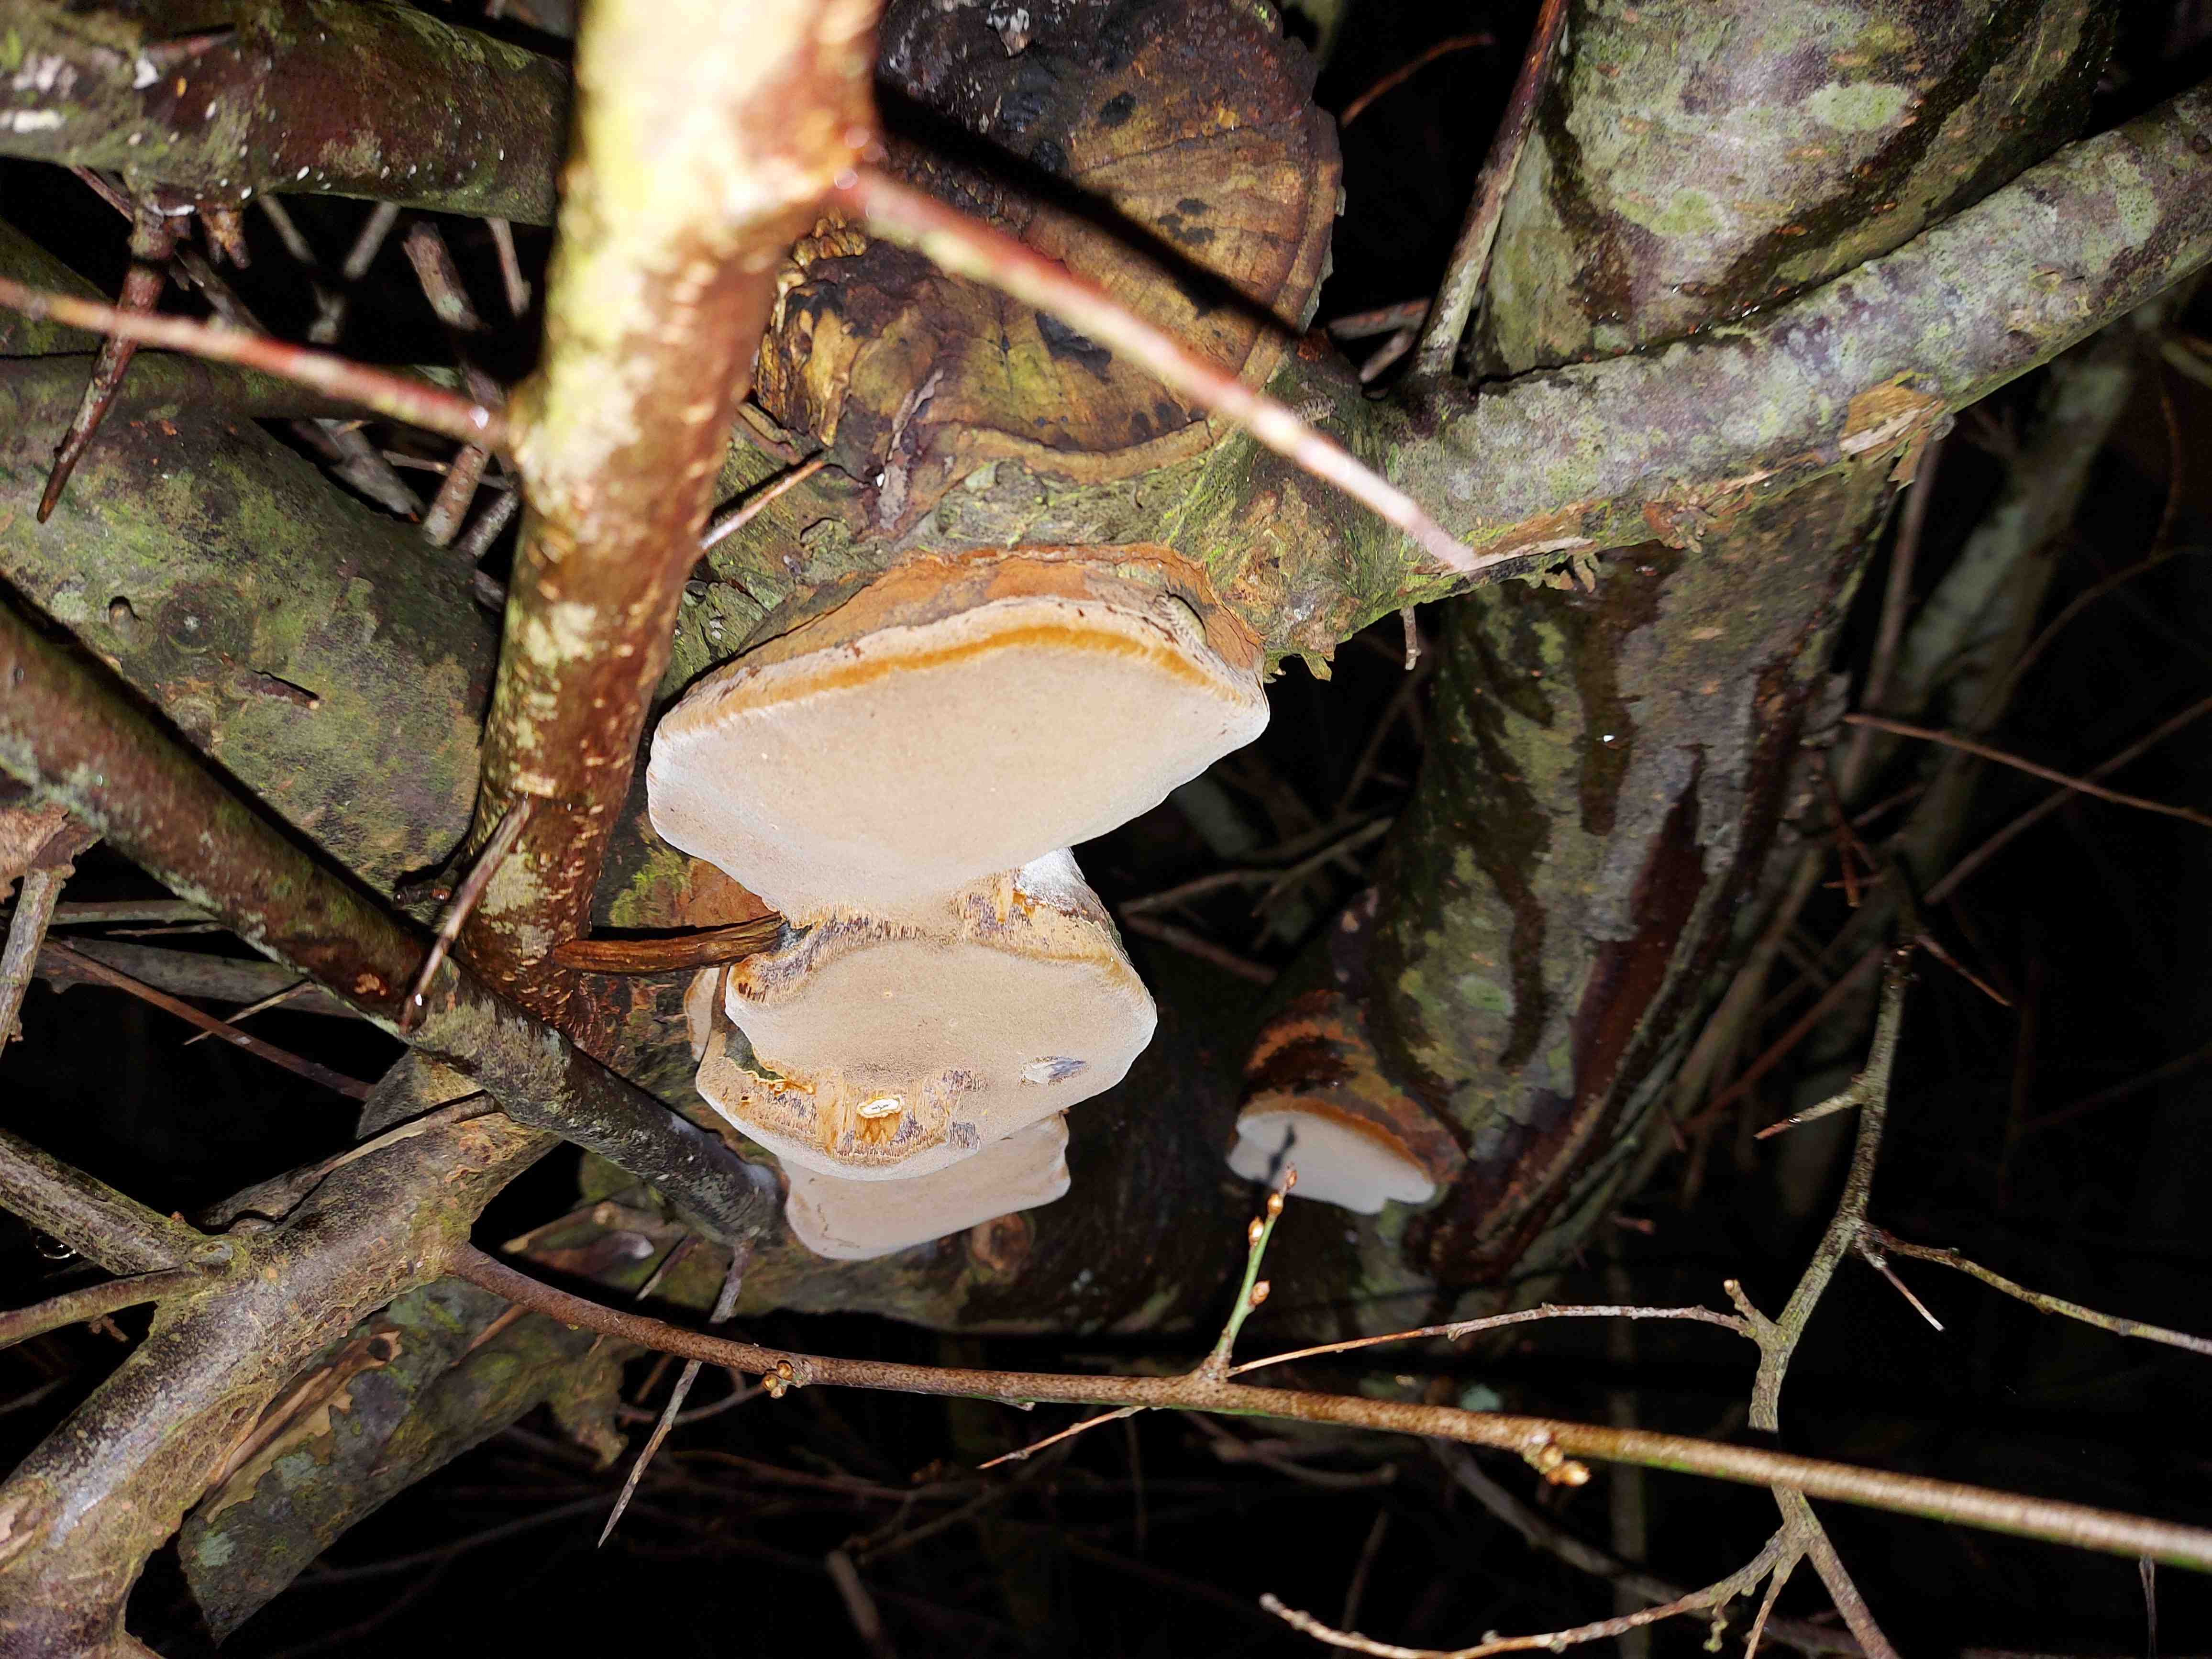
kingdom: Fungi
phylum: Basidiomycota
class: Agaricomycetes
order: Hymenochaetales
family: Hymenochaetaceae
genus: Phellinus
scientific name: Phellinus pomaceus
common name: blomme-ildporesvamp
